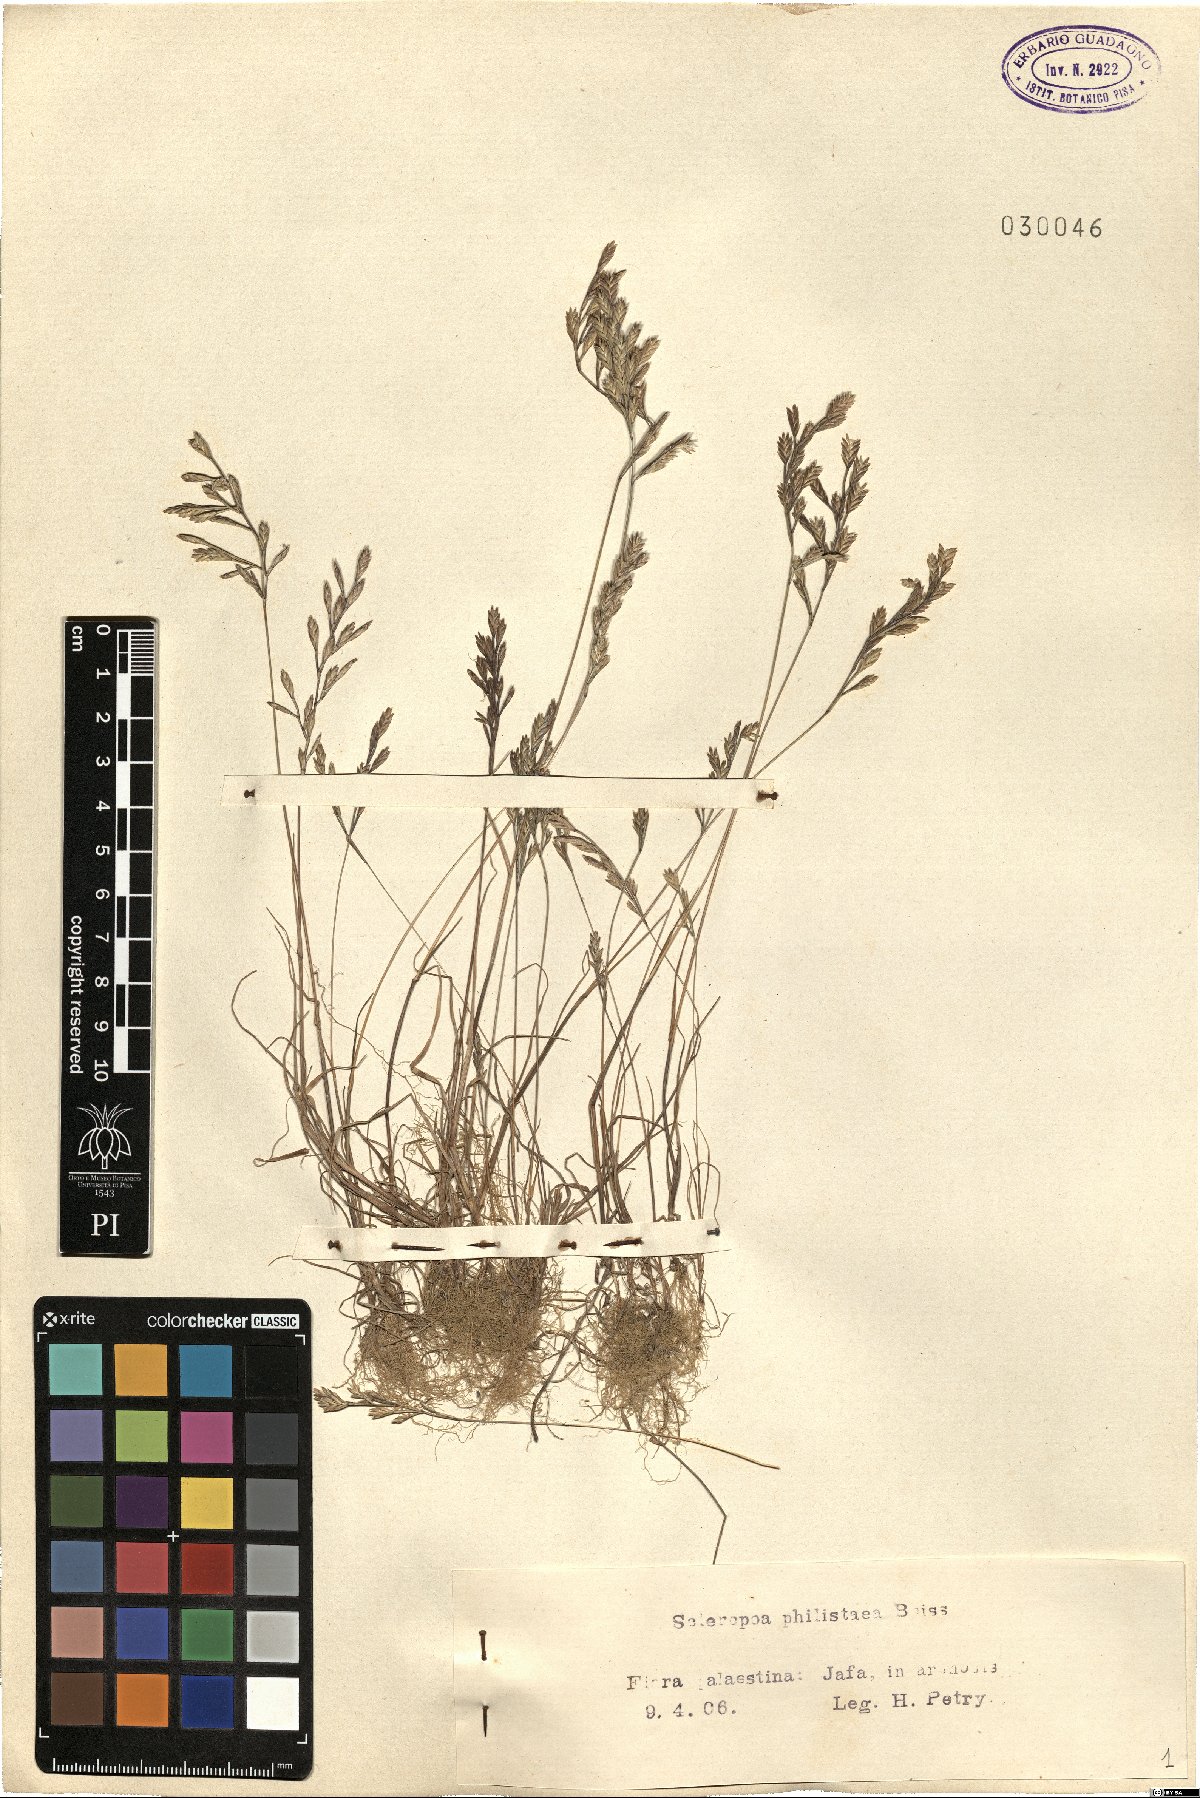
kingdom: Plantae
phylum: Tracheophyta
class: Liliopsida
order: Poales
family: Poaceae
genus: Desmazeria
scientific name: Desmazeria philistaea
